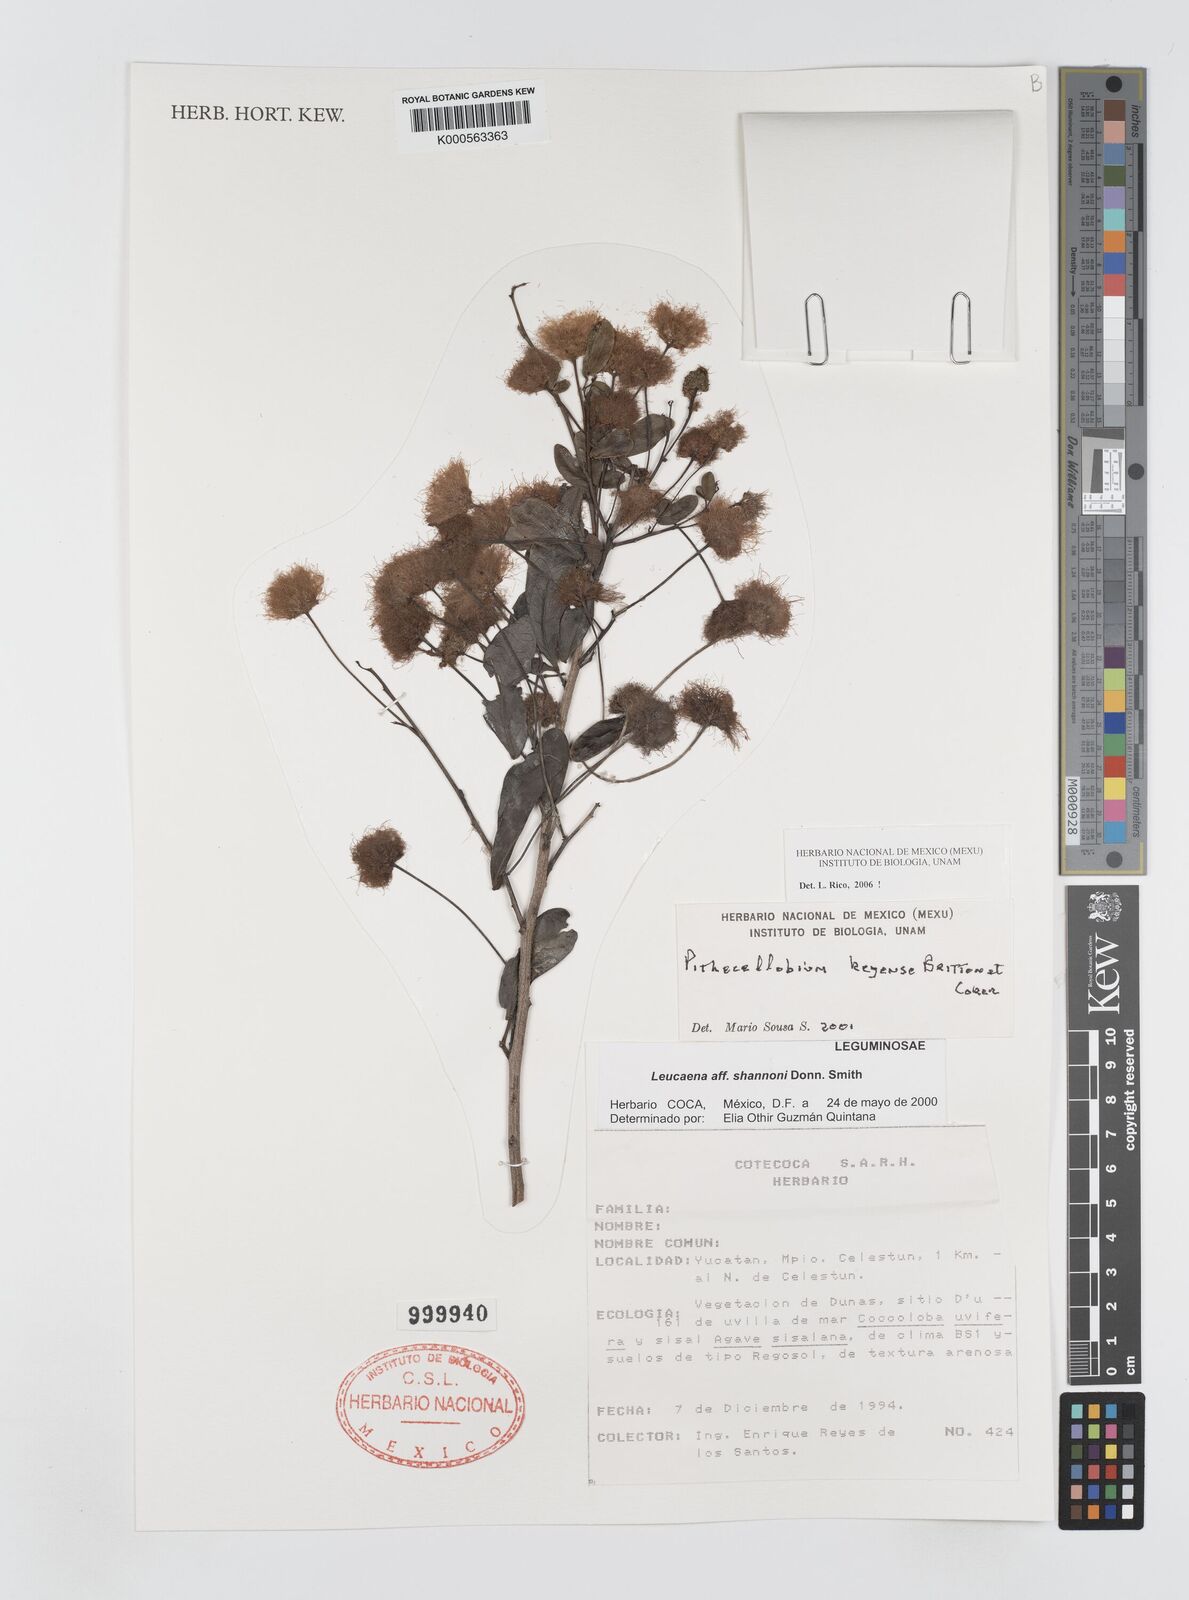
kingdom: Plantae
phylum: Tracheophyta
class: Magnoliopsida
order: Fabales
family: Fabaceae
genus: Pithecellobium
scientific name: Pithecellobium
